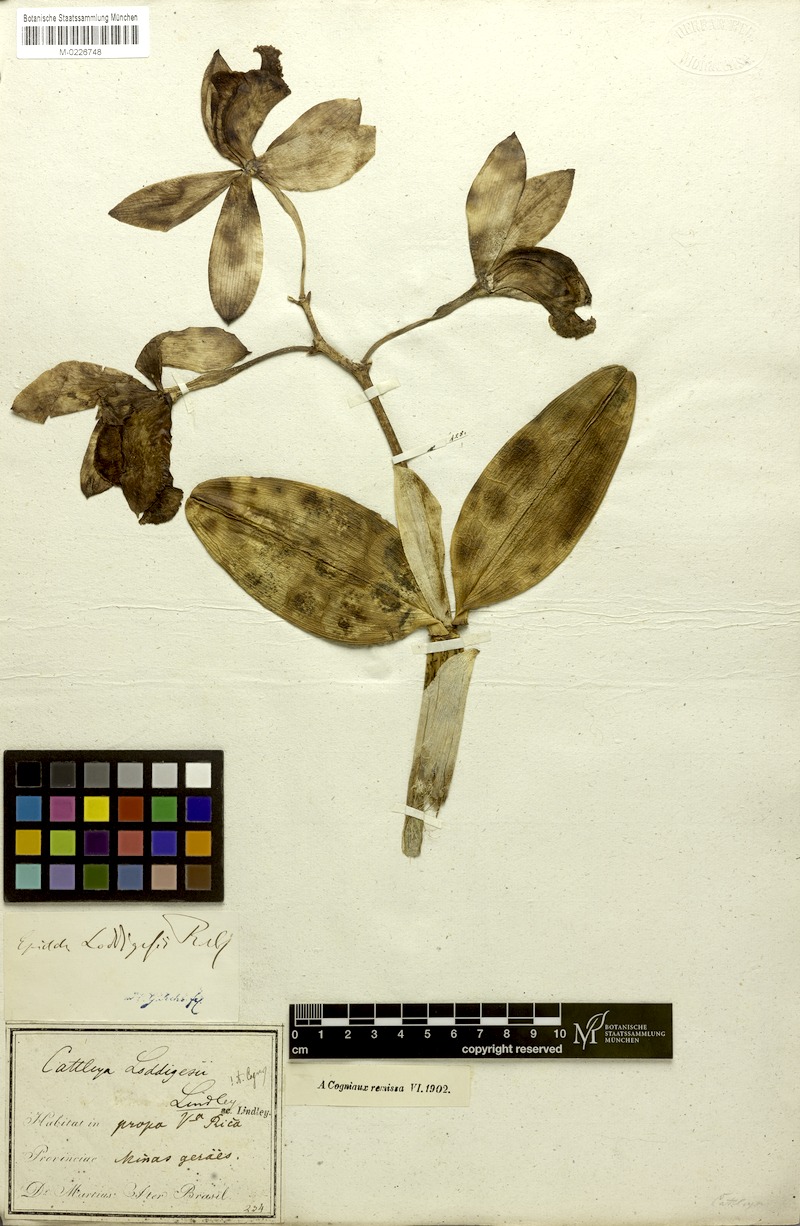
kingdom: Plantae
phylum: Tracheophyta
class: Liliopsida
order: Asparagales
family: Orchidaceae
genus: Cattleya
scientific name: Cattleya loddigesii
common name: Loddiges's cattleya
